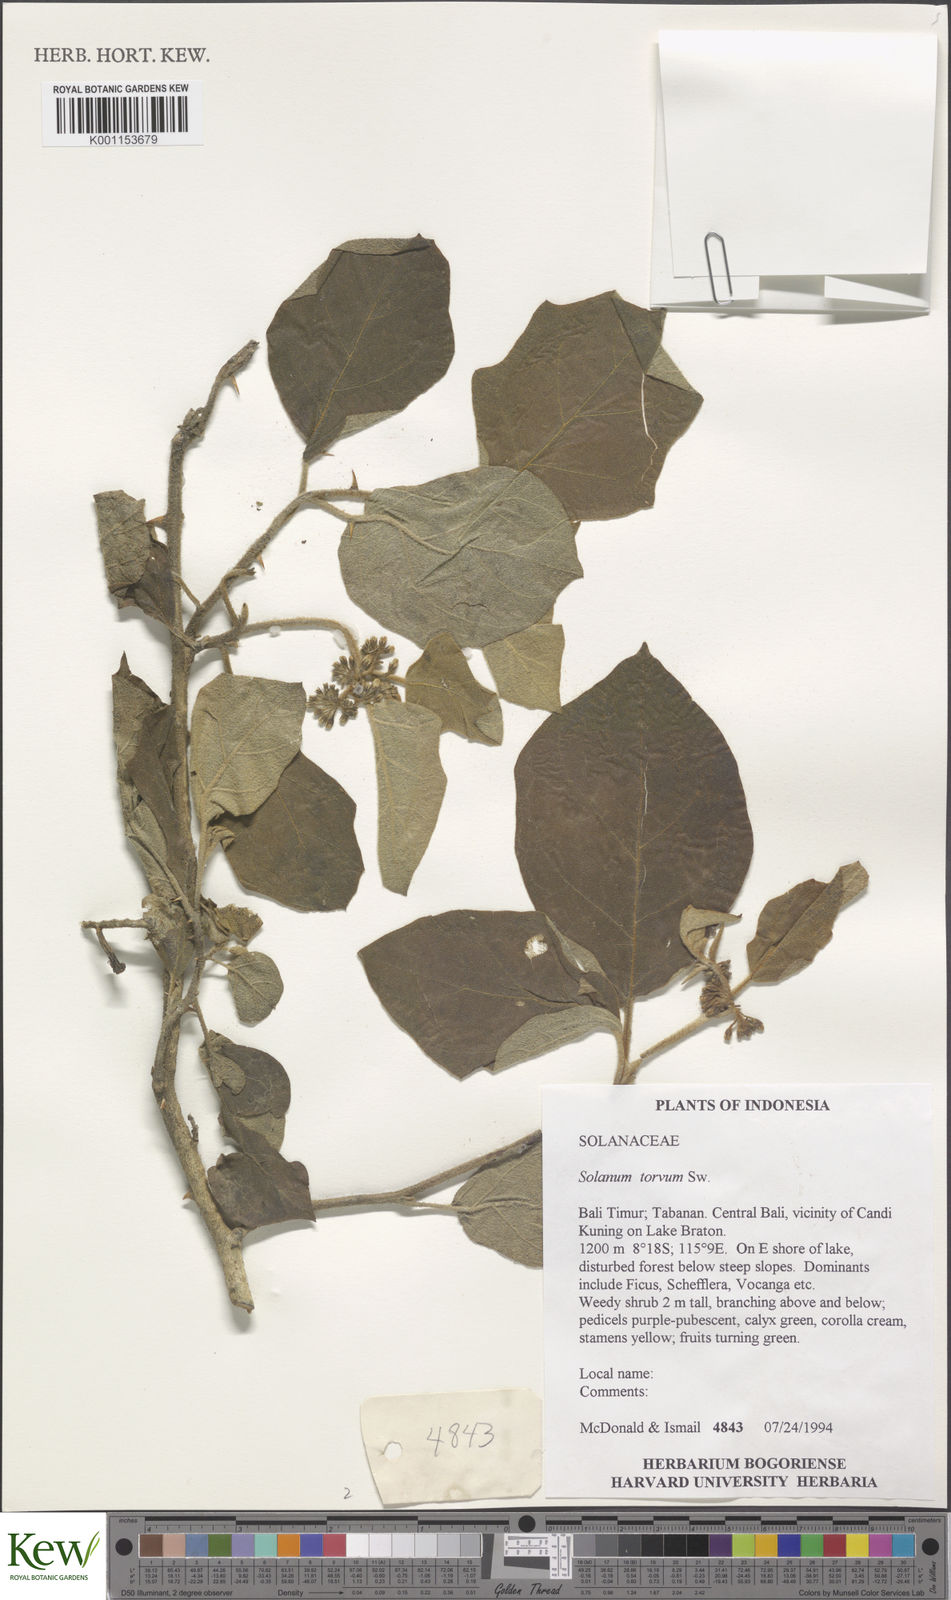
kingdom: Plantae
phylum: Tracheophyta
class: Magnoliopsida
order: Solanales
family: Solanaceae
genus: Solanum
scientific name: Solanum torvum
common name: Turkey berry
